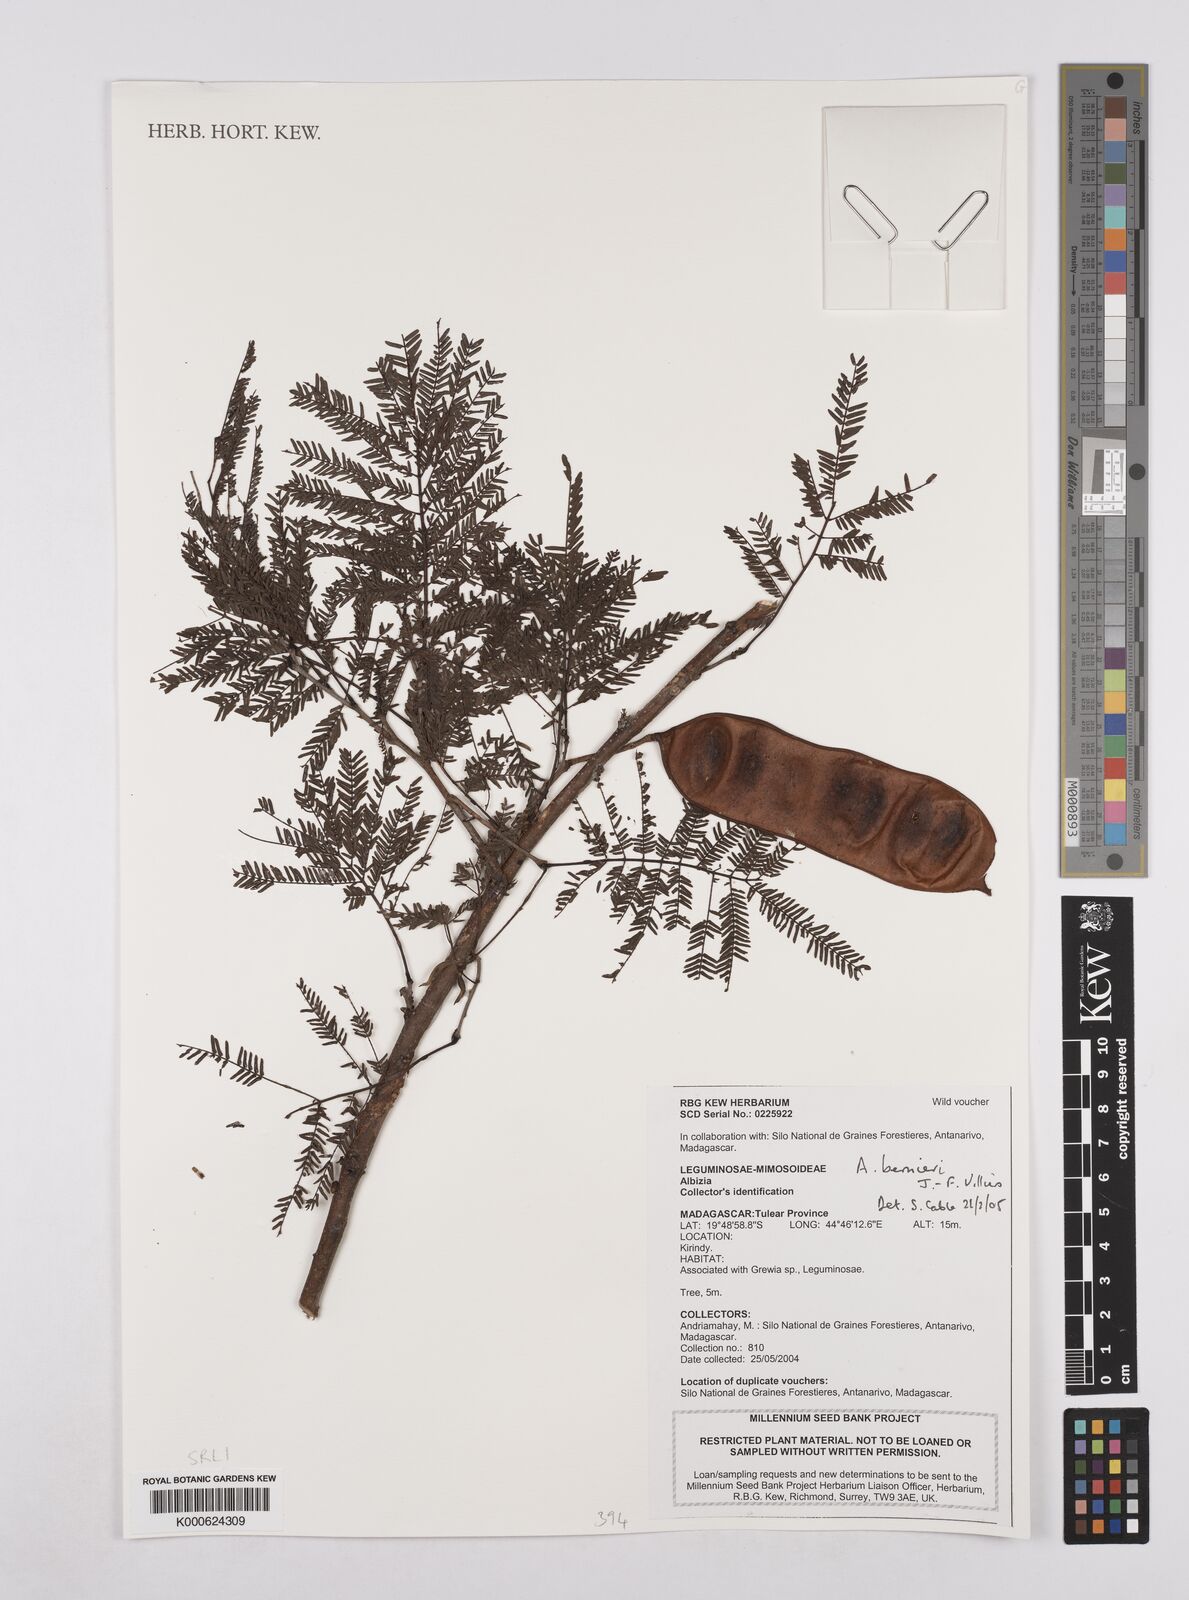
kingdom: Plantae
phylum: Tracheophyta
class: Magnoliopsida
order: Fabales
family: Fabaceae
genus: Albizia
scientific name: Albizia bernieri
